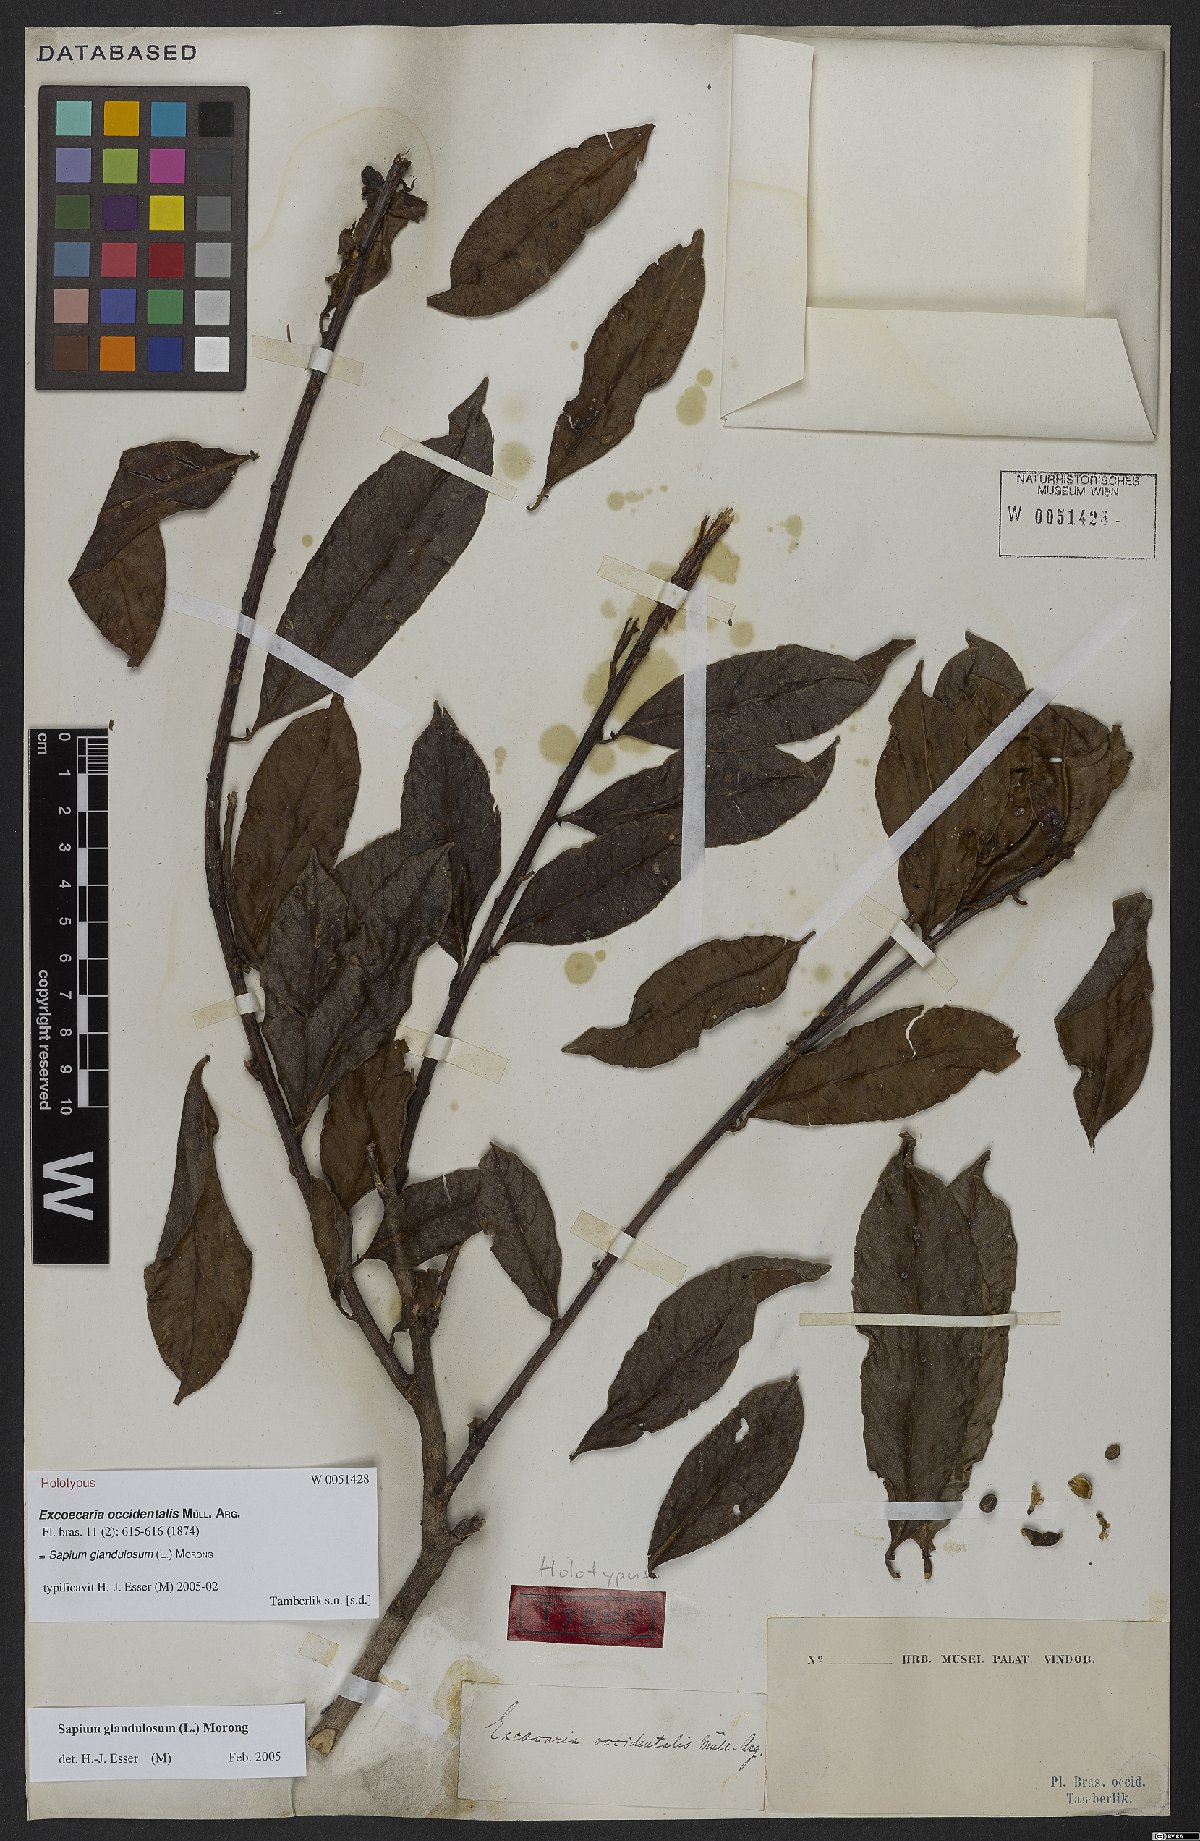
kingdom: Plantae
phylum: Tracheophyta
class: Magnoliopsida
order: Malpighiales
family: Euphorbiaceae
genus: Sapium
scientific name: Sapium glandulosum
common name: Milktree
